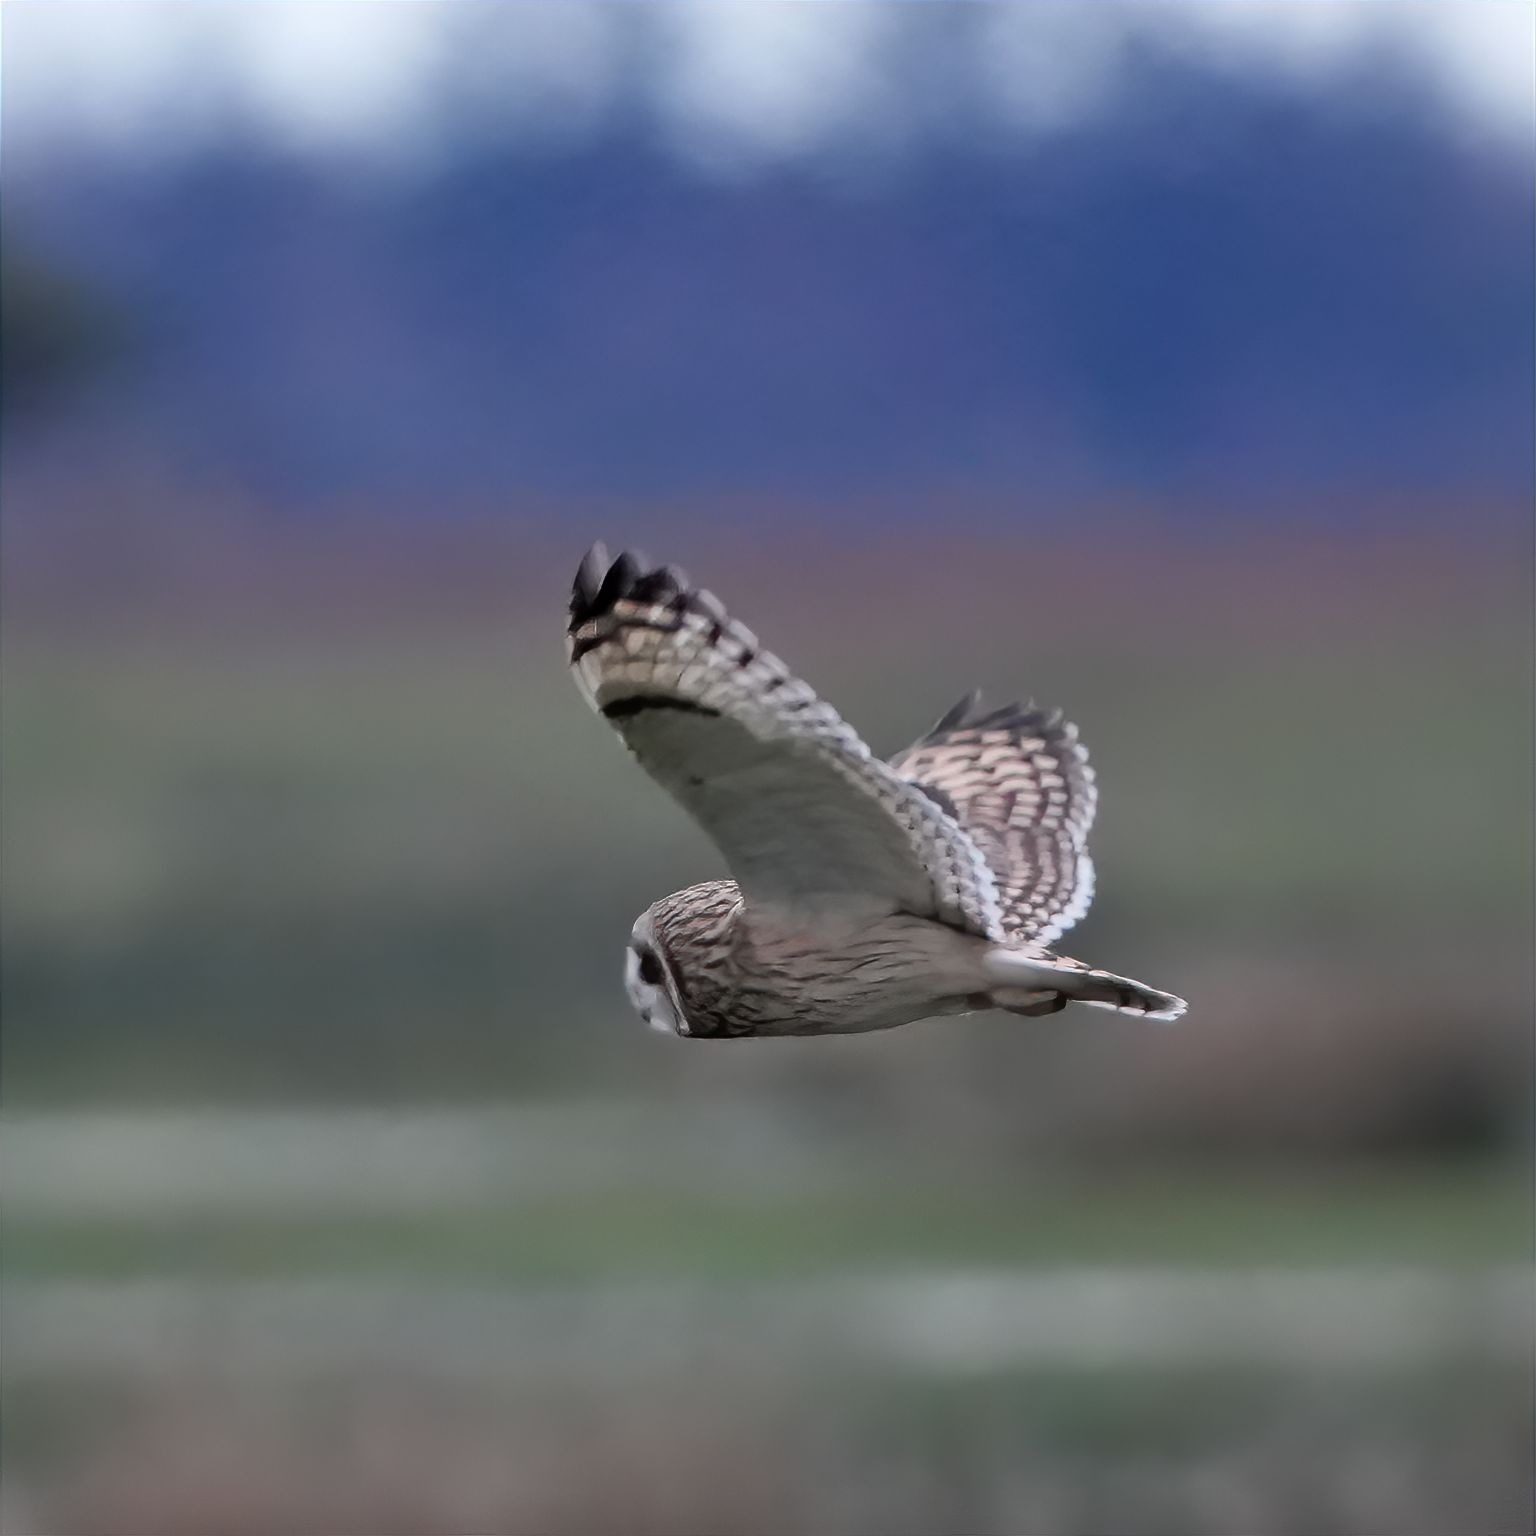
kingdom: Animalia
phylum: Chordata
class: Aves
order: Strigiformes
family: Strigidae
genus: Asio
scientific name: Asio flammeus
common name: Mosehornugle
